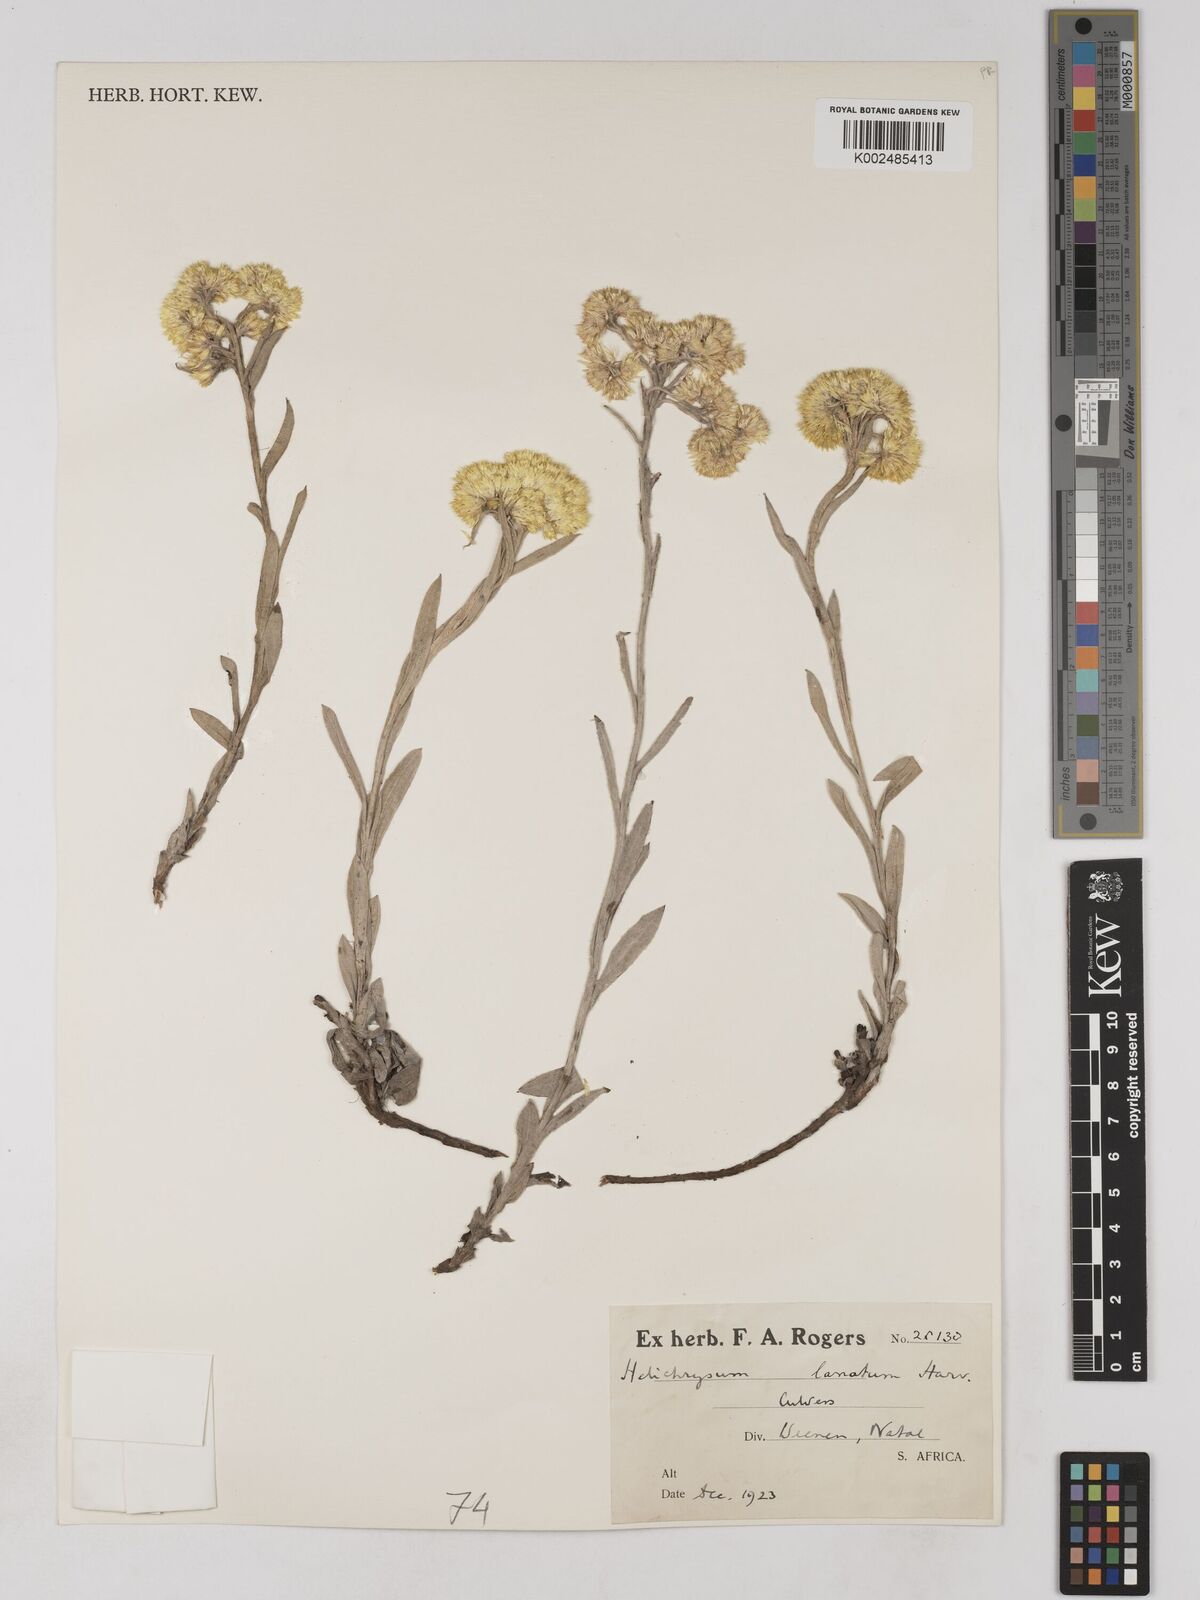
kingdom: Plantae
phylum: Tracheophyta
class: Magnoliopsida
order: Asterales
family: Asteraceae
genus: Helichrysum
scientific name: Helichrysum dasymallum
